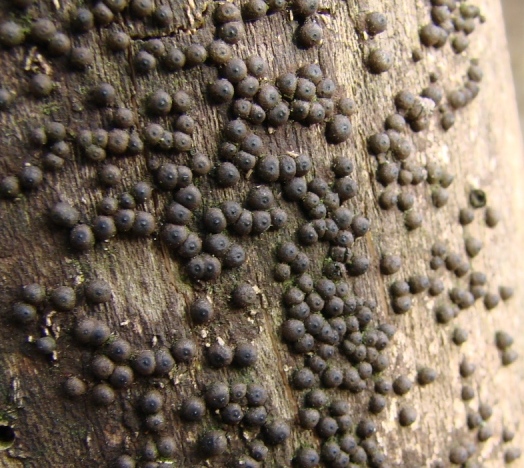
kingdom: Fungi
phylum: Ascomycota
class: Sordariomycetes
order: Xylariales
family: Xylariaceae
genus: Rosellinia
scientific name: Rosellinia corticium
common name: måtte-kulkaviar
